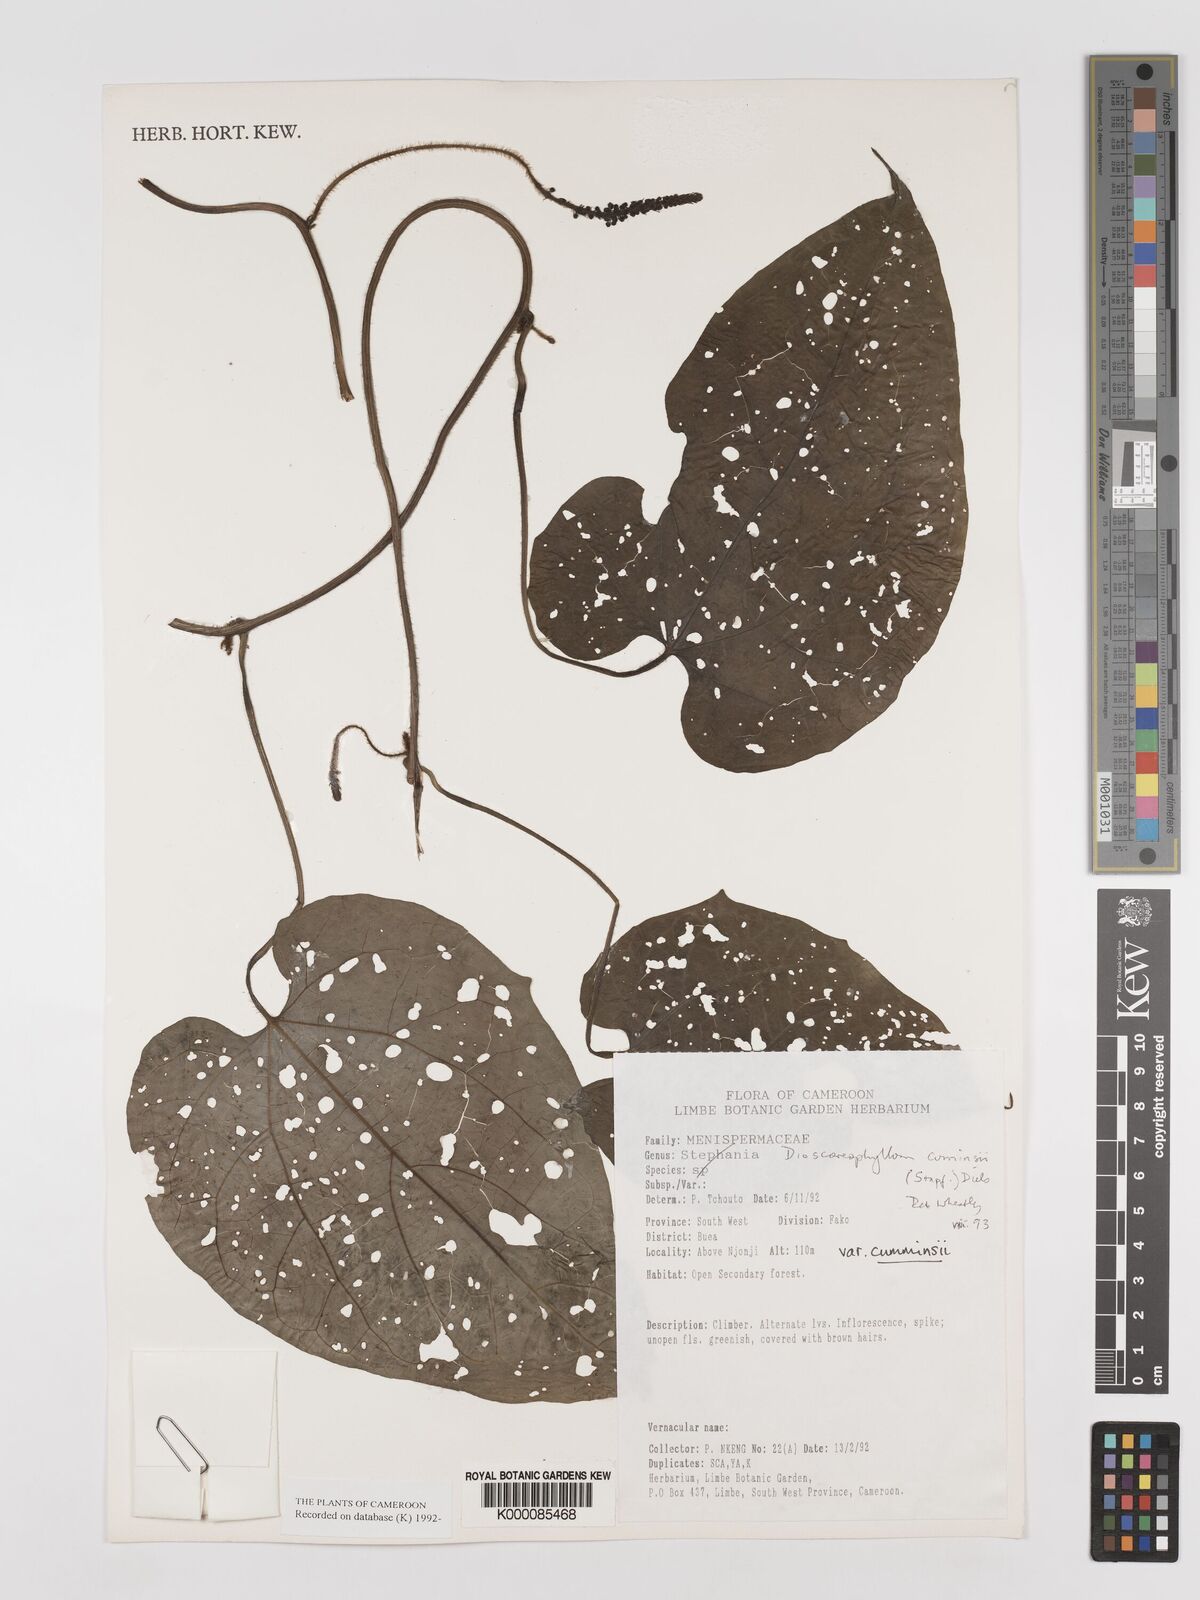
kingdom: Plantae
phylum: Tracheophyta
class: Magnoliopsida
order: Ranunculales
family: Menispermaceae
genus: Dioscoreophyllum
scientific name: Dioscoreophyllum volkensii
